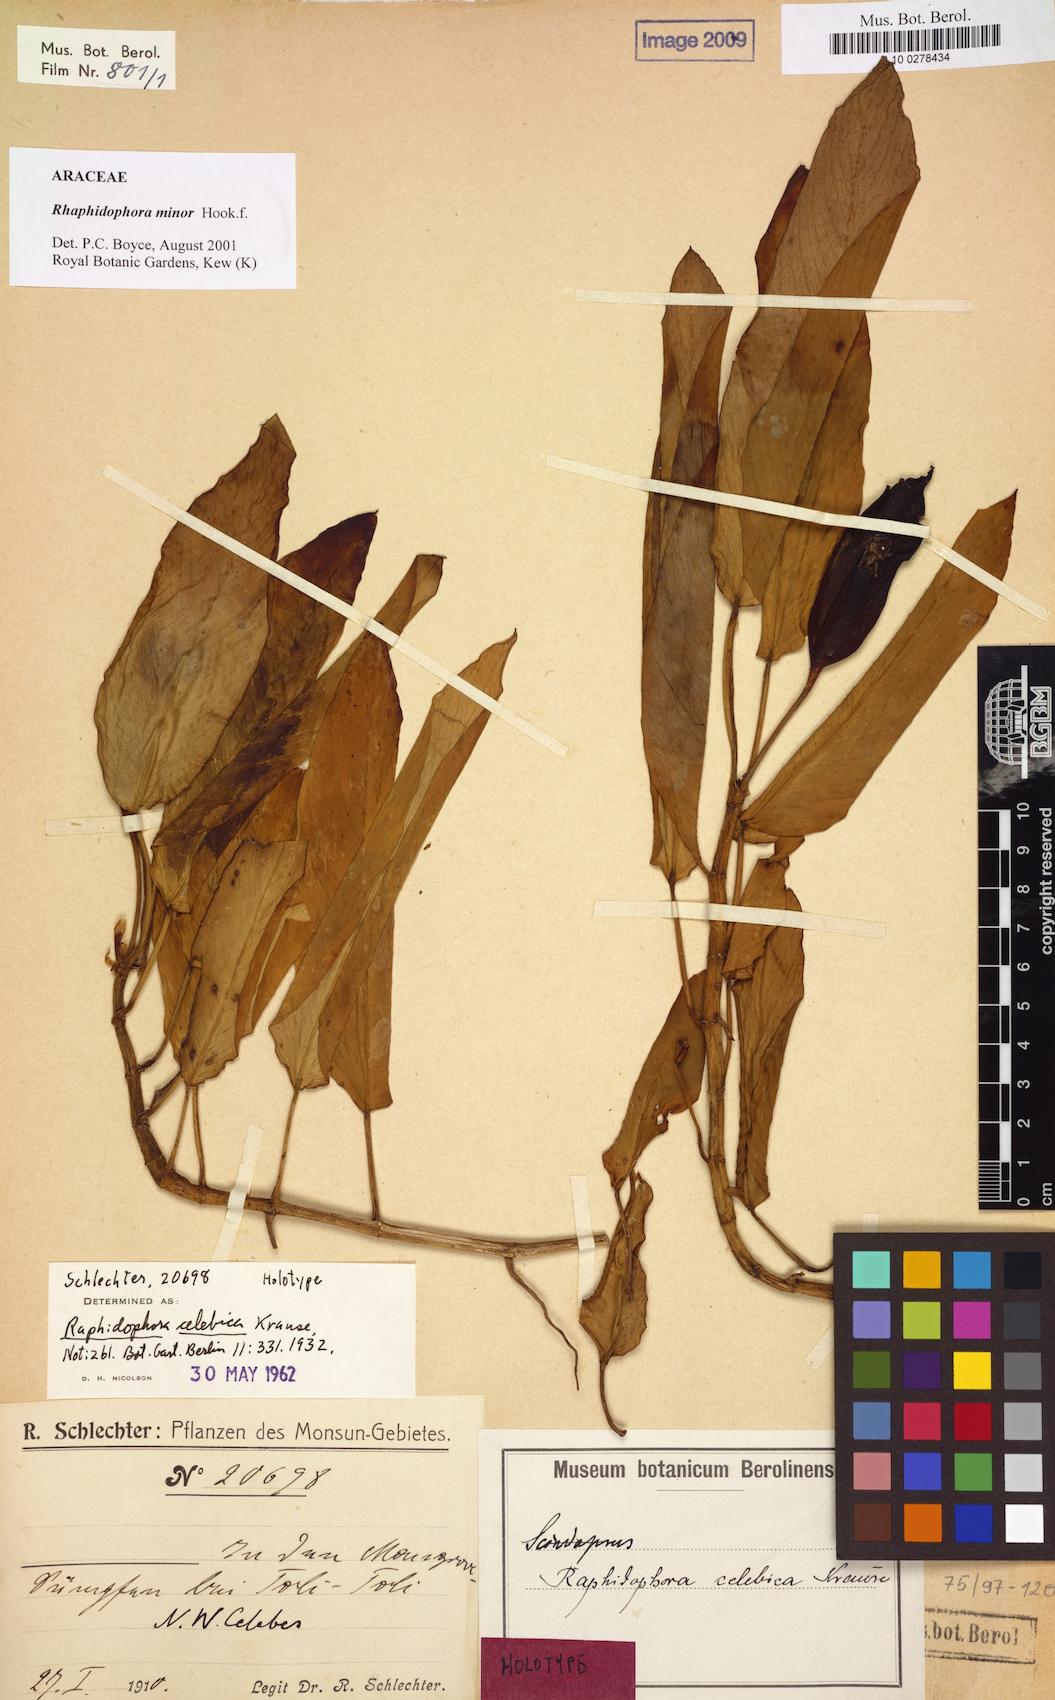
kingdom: Plantae
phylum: Tracheophyta
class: Liliopsida
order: Alismatales
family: Araceae
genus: Rhaphidophora
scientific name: Rhaphidophora minor
